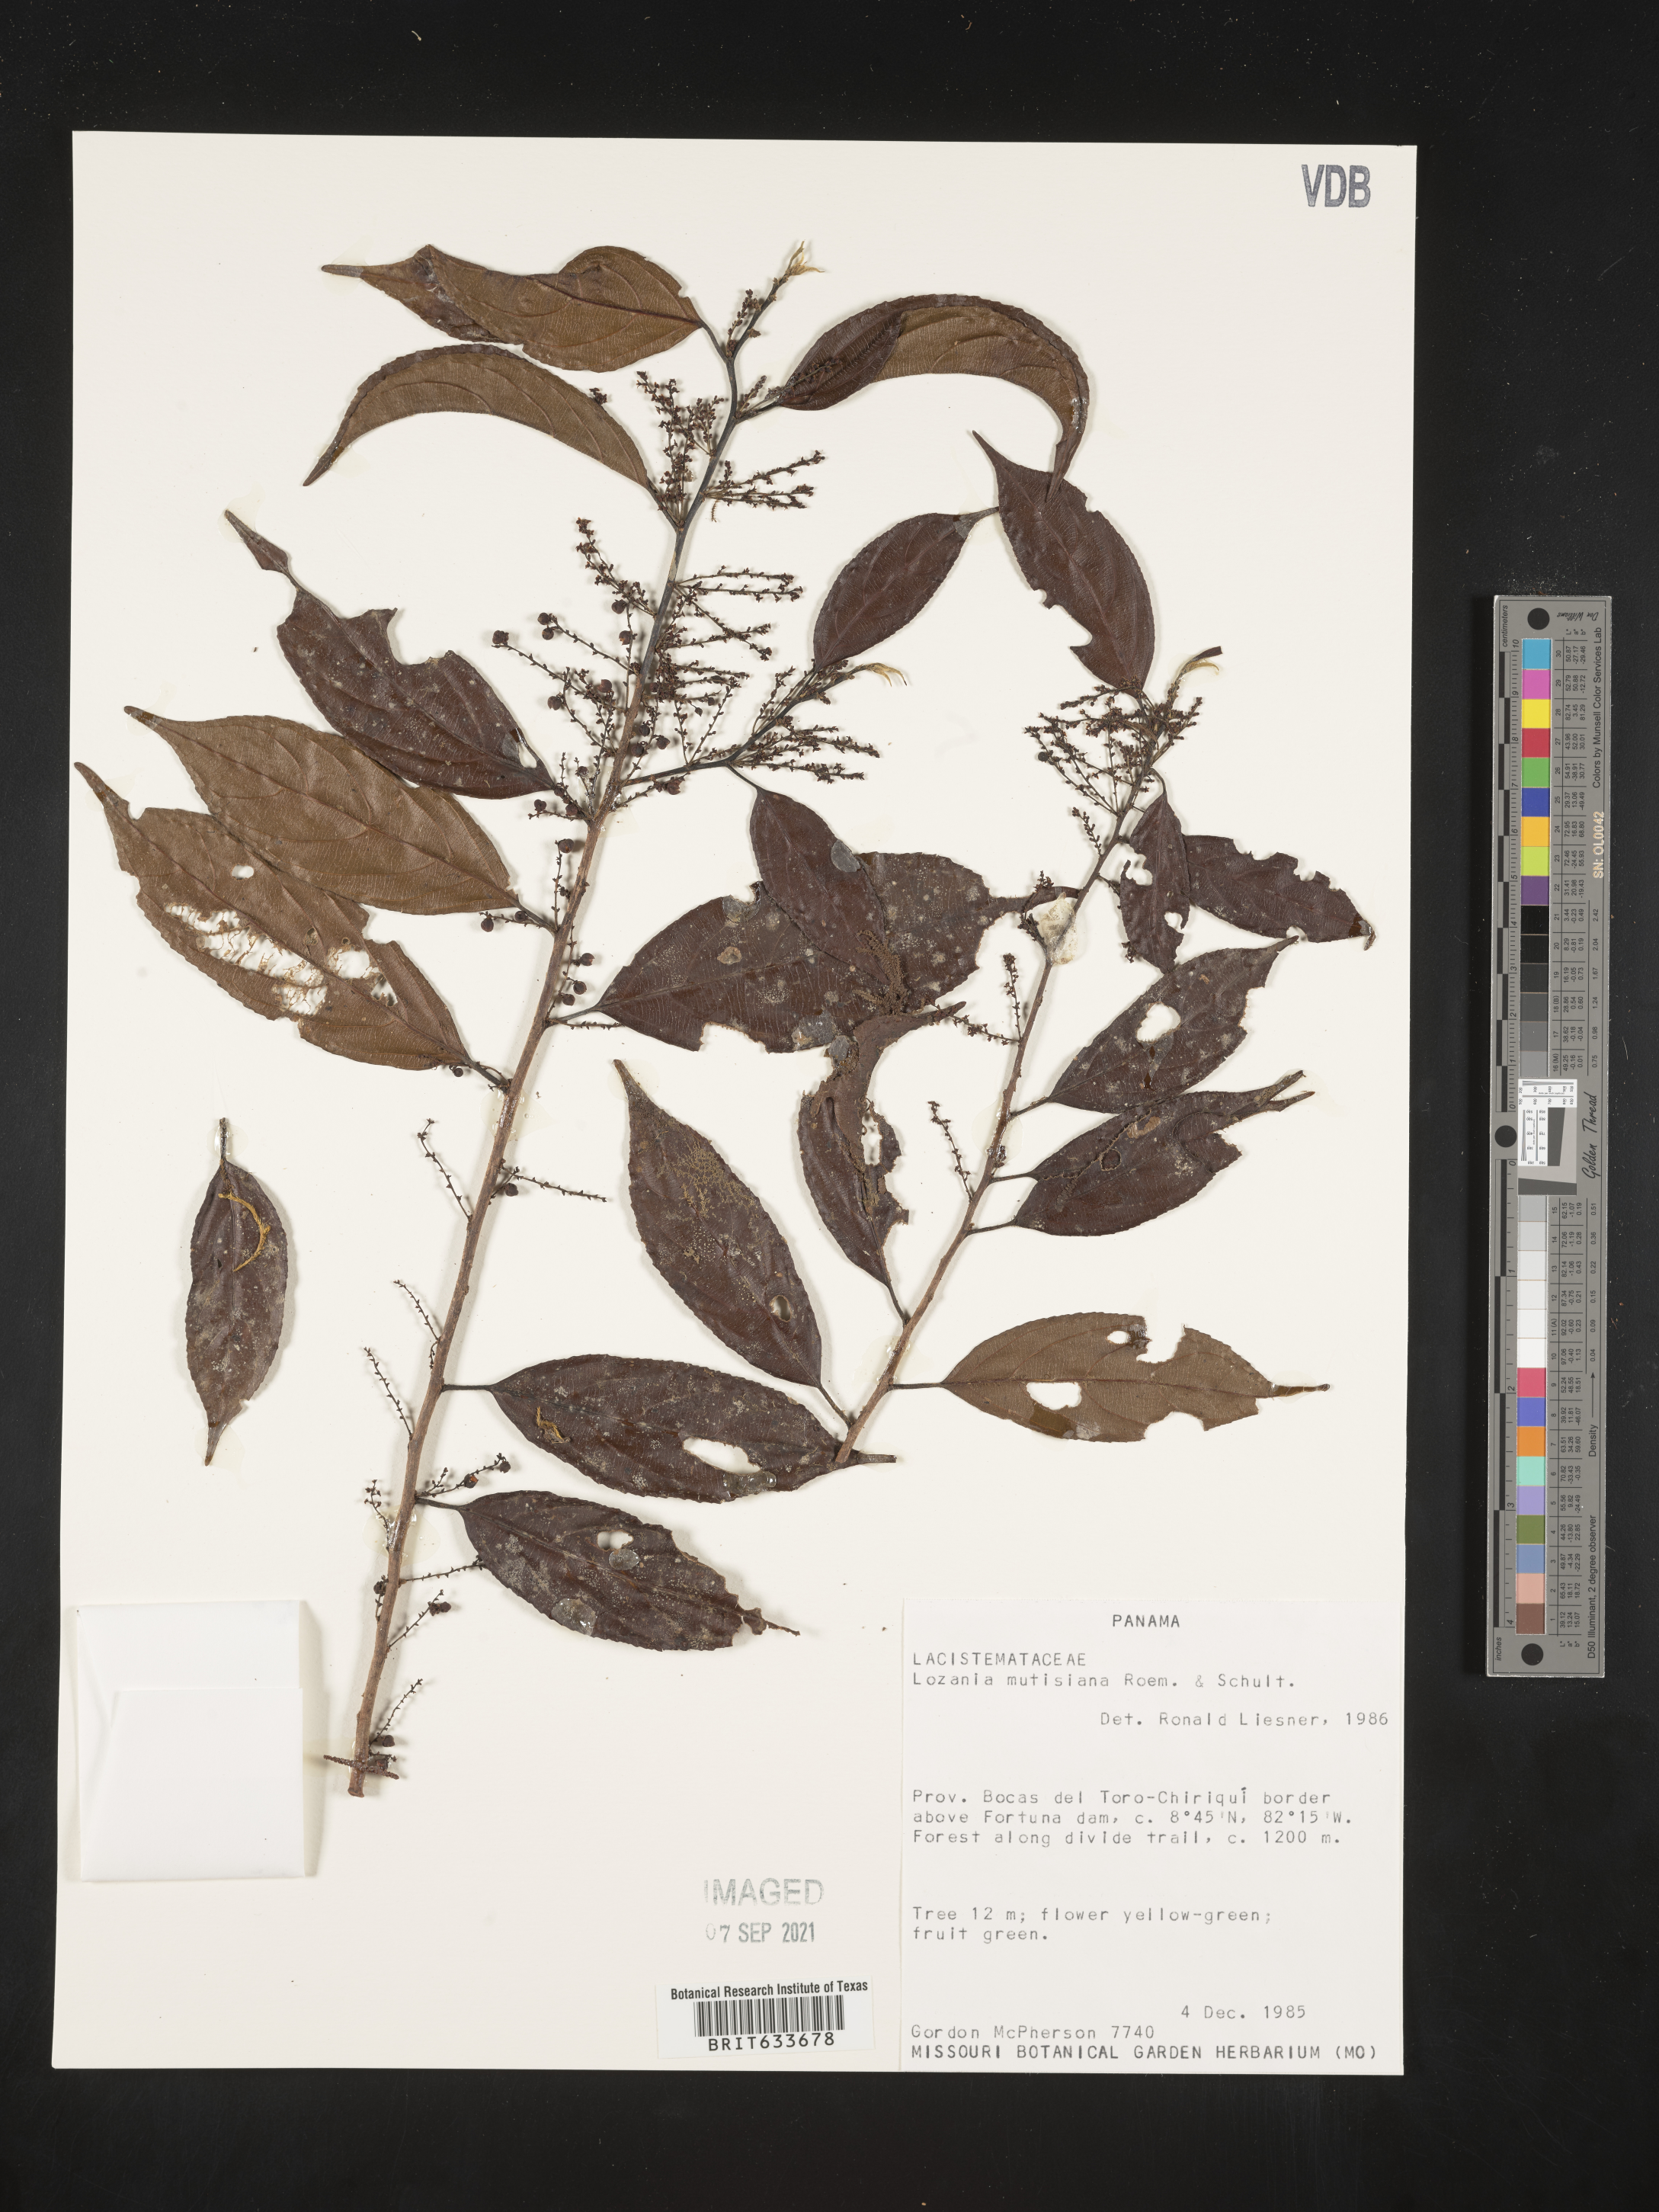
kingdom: Plantae
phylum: Tracheophyta
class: Magnoliopsida
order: Malpighiales
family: Lacistemataceae
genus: Lozania
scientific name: Lozania
